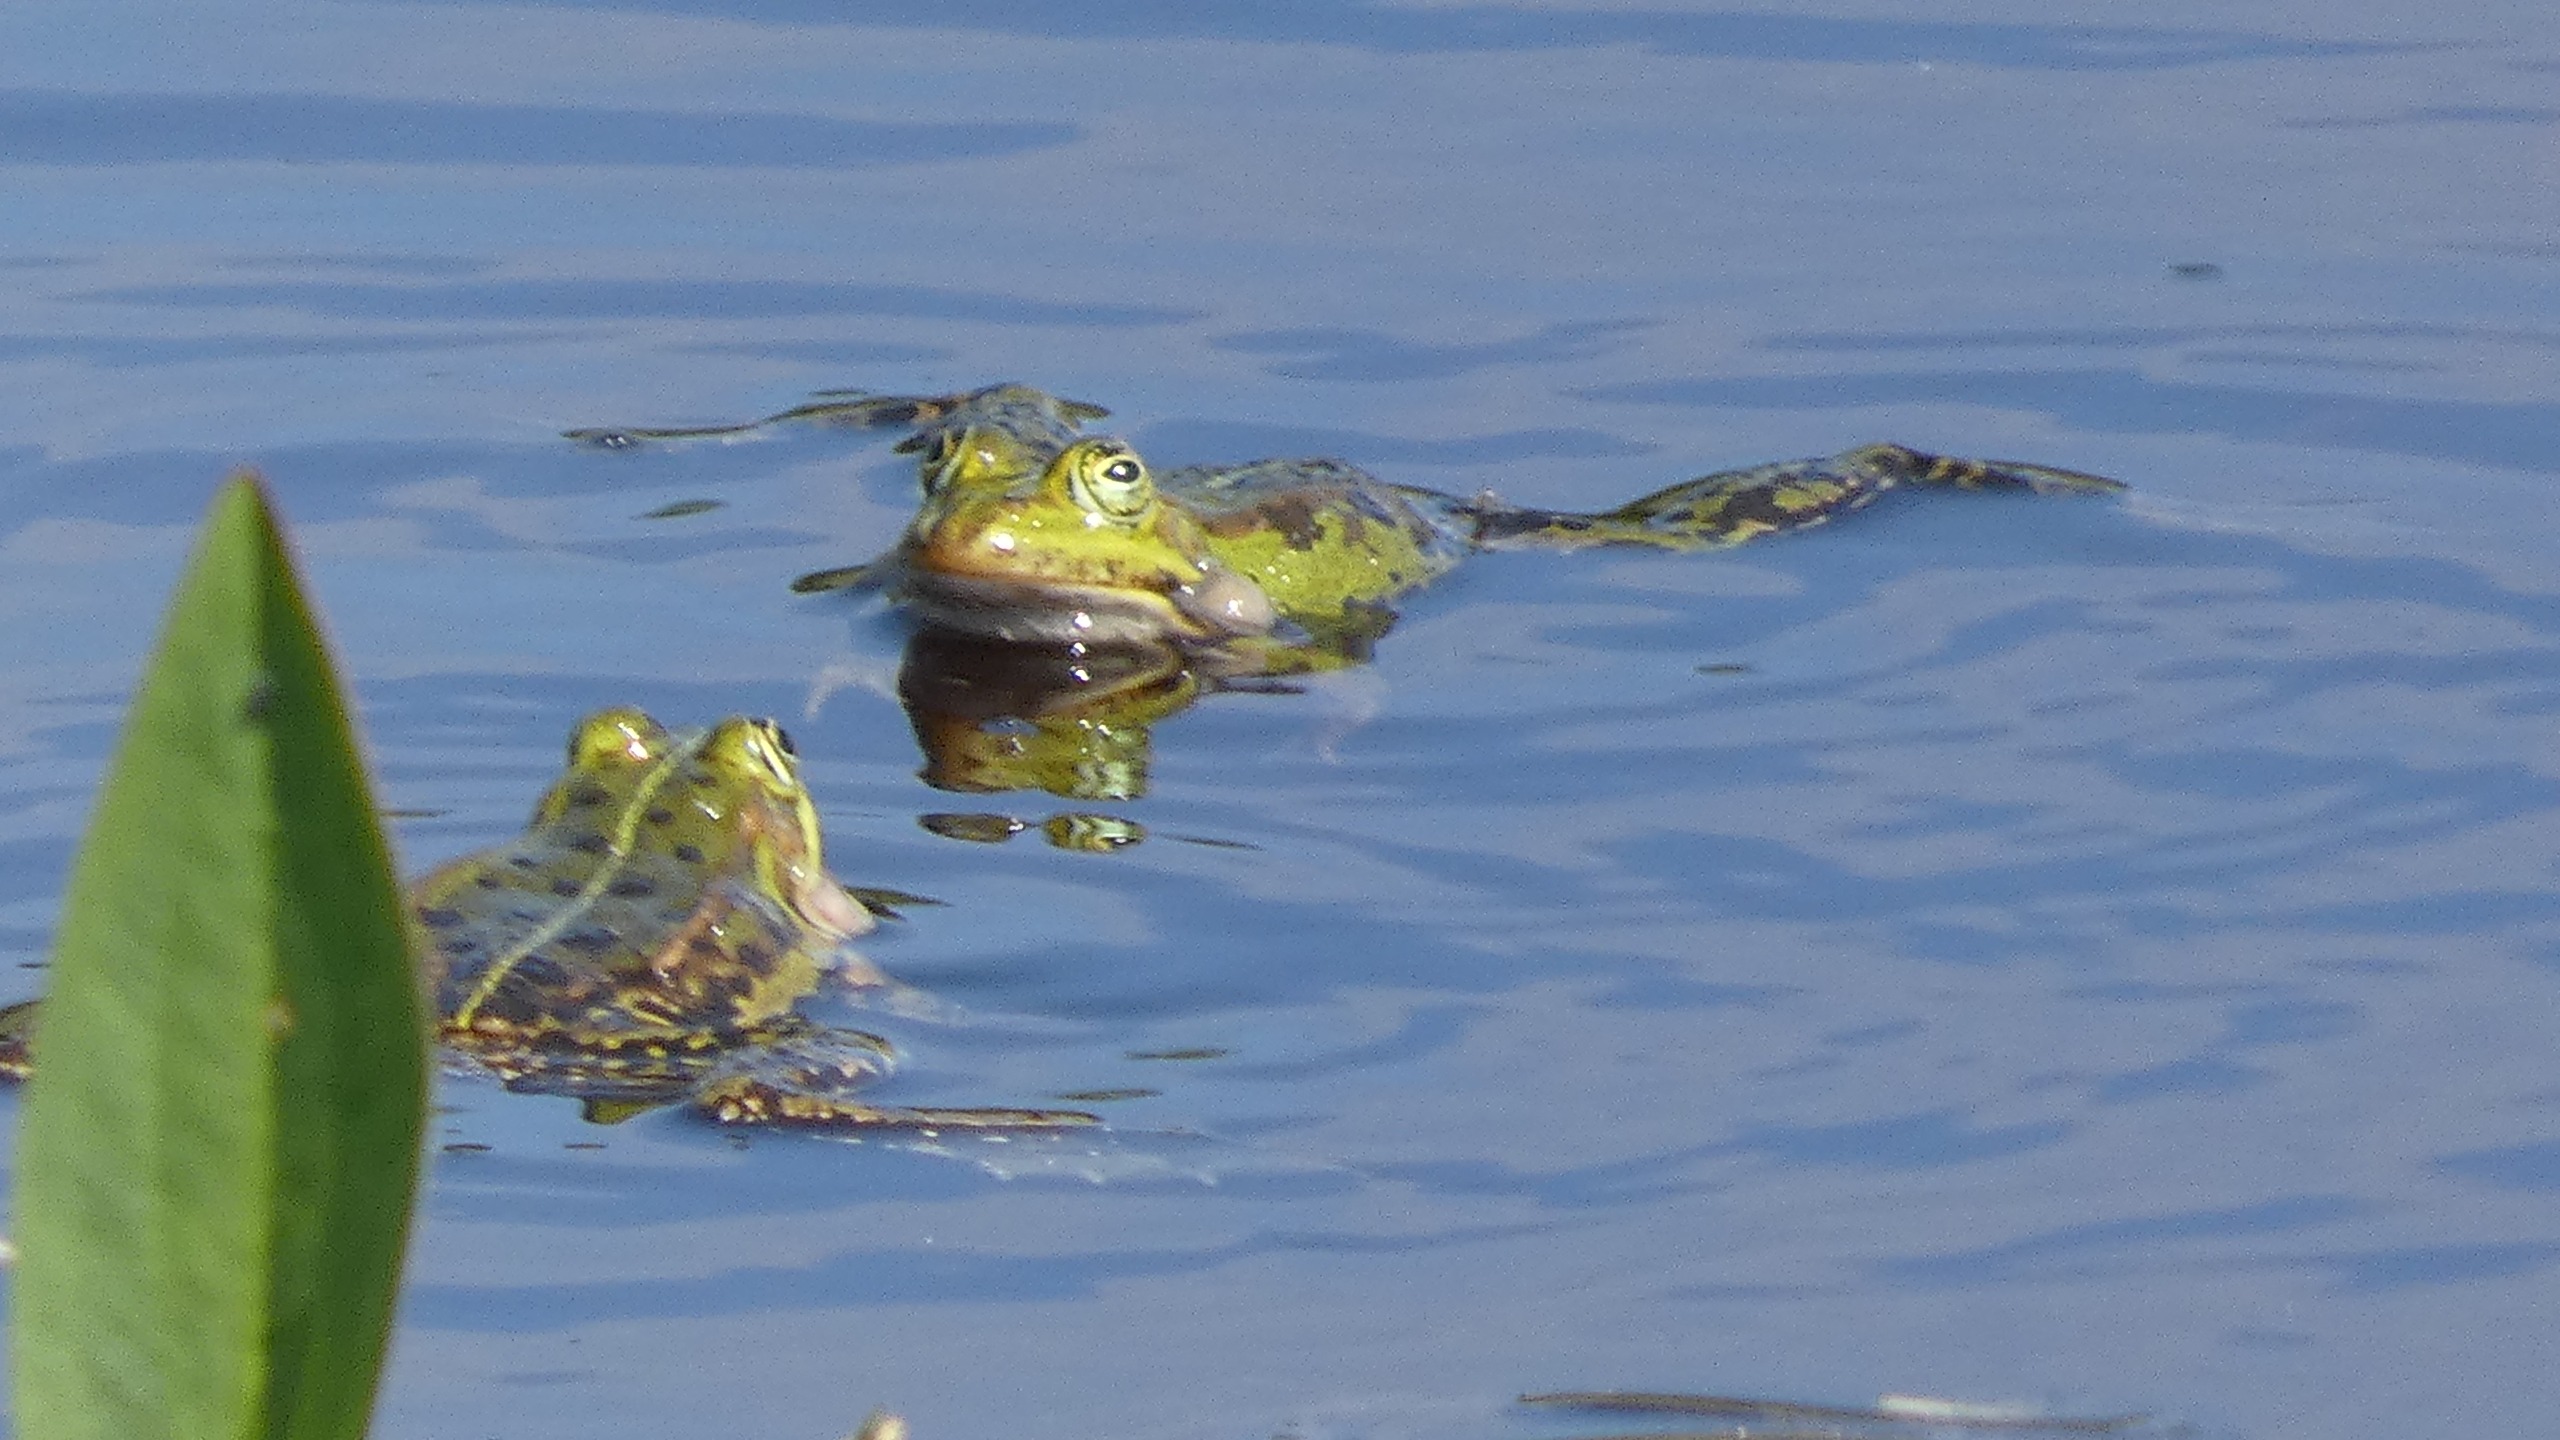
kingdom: Animalia
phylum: Chordata
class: Amphibia
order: Anura
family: Ranidae
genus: Pelophylax
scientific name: Pelophylax lessonae
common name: Grøn frø
